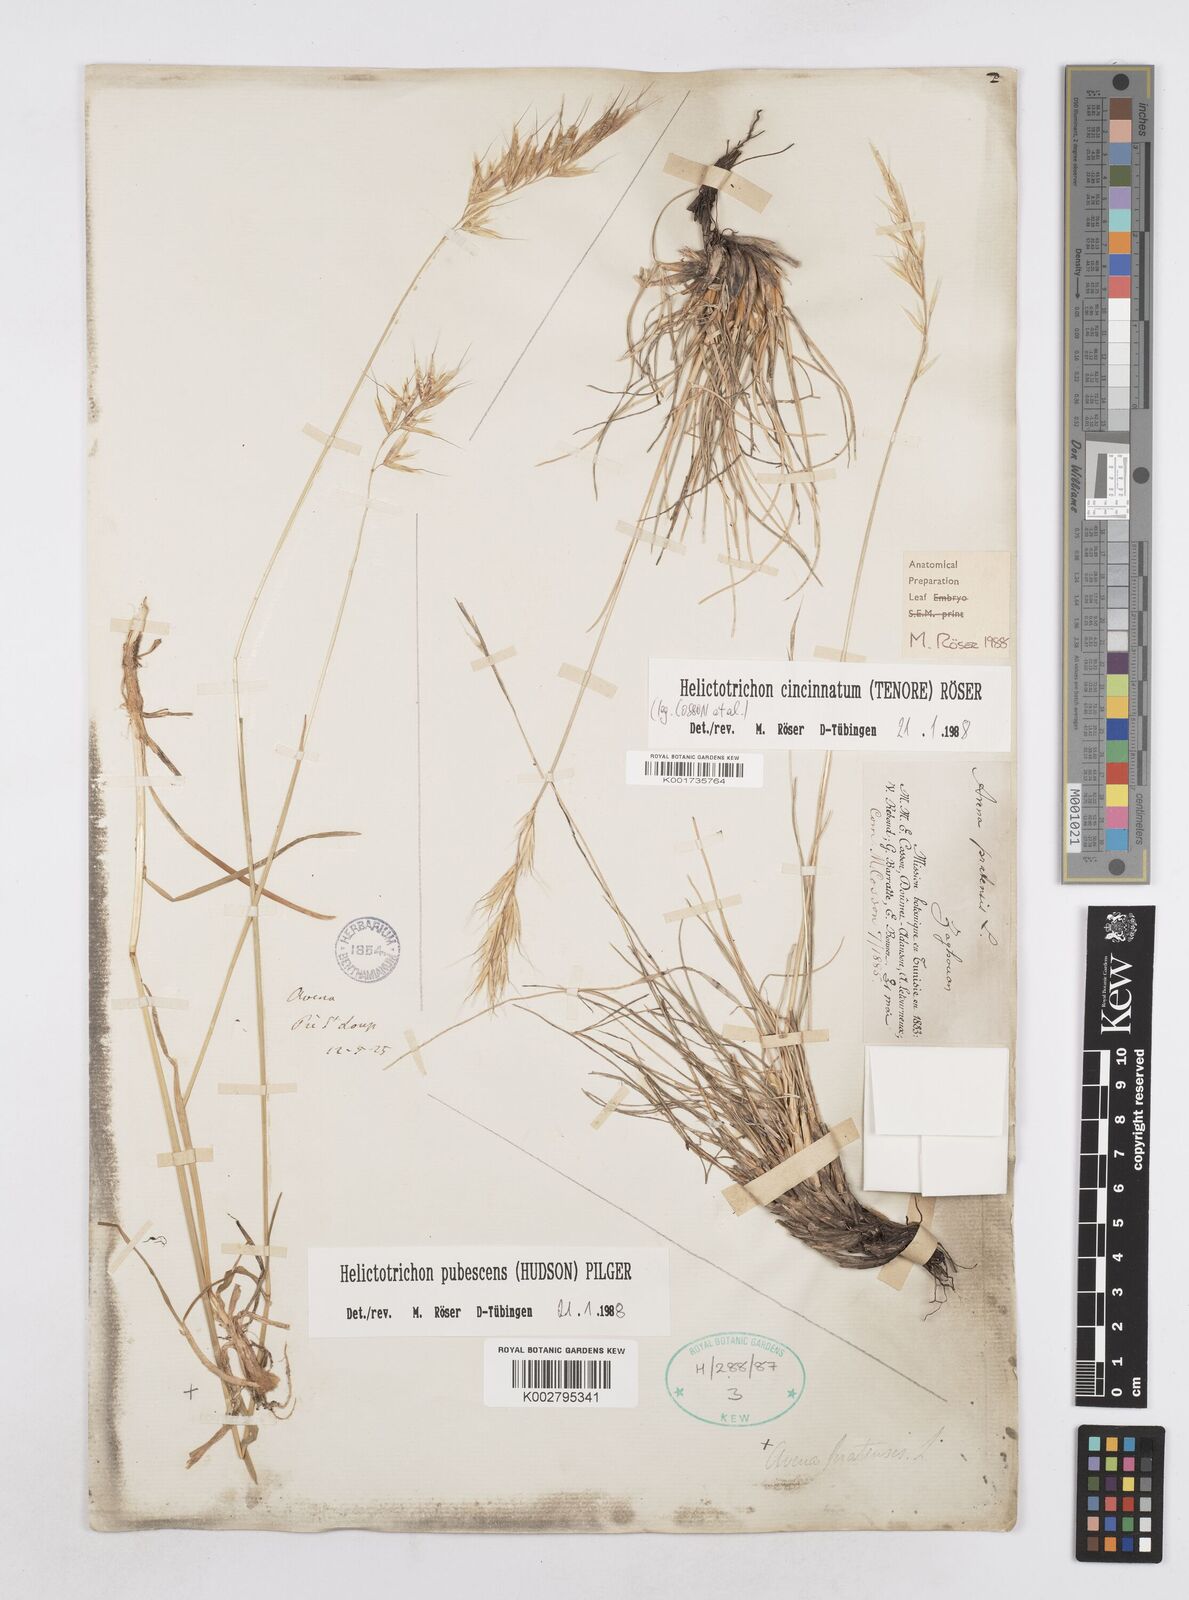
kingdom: Plantae
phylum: Tracheophyta
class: Liliopsida
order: Poales
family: Poaceae
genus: Helictochloa
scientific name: Helictochloa cincinnata
